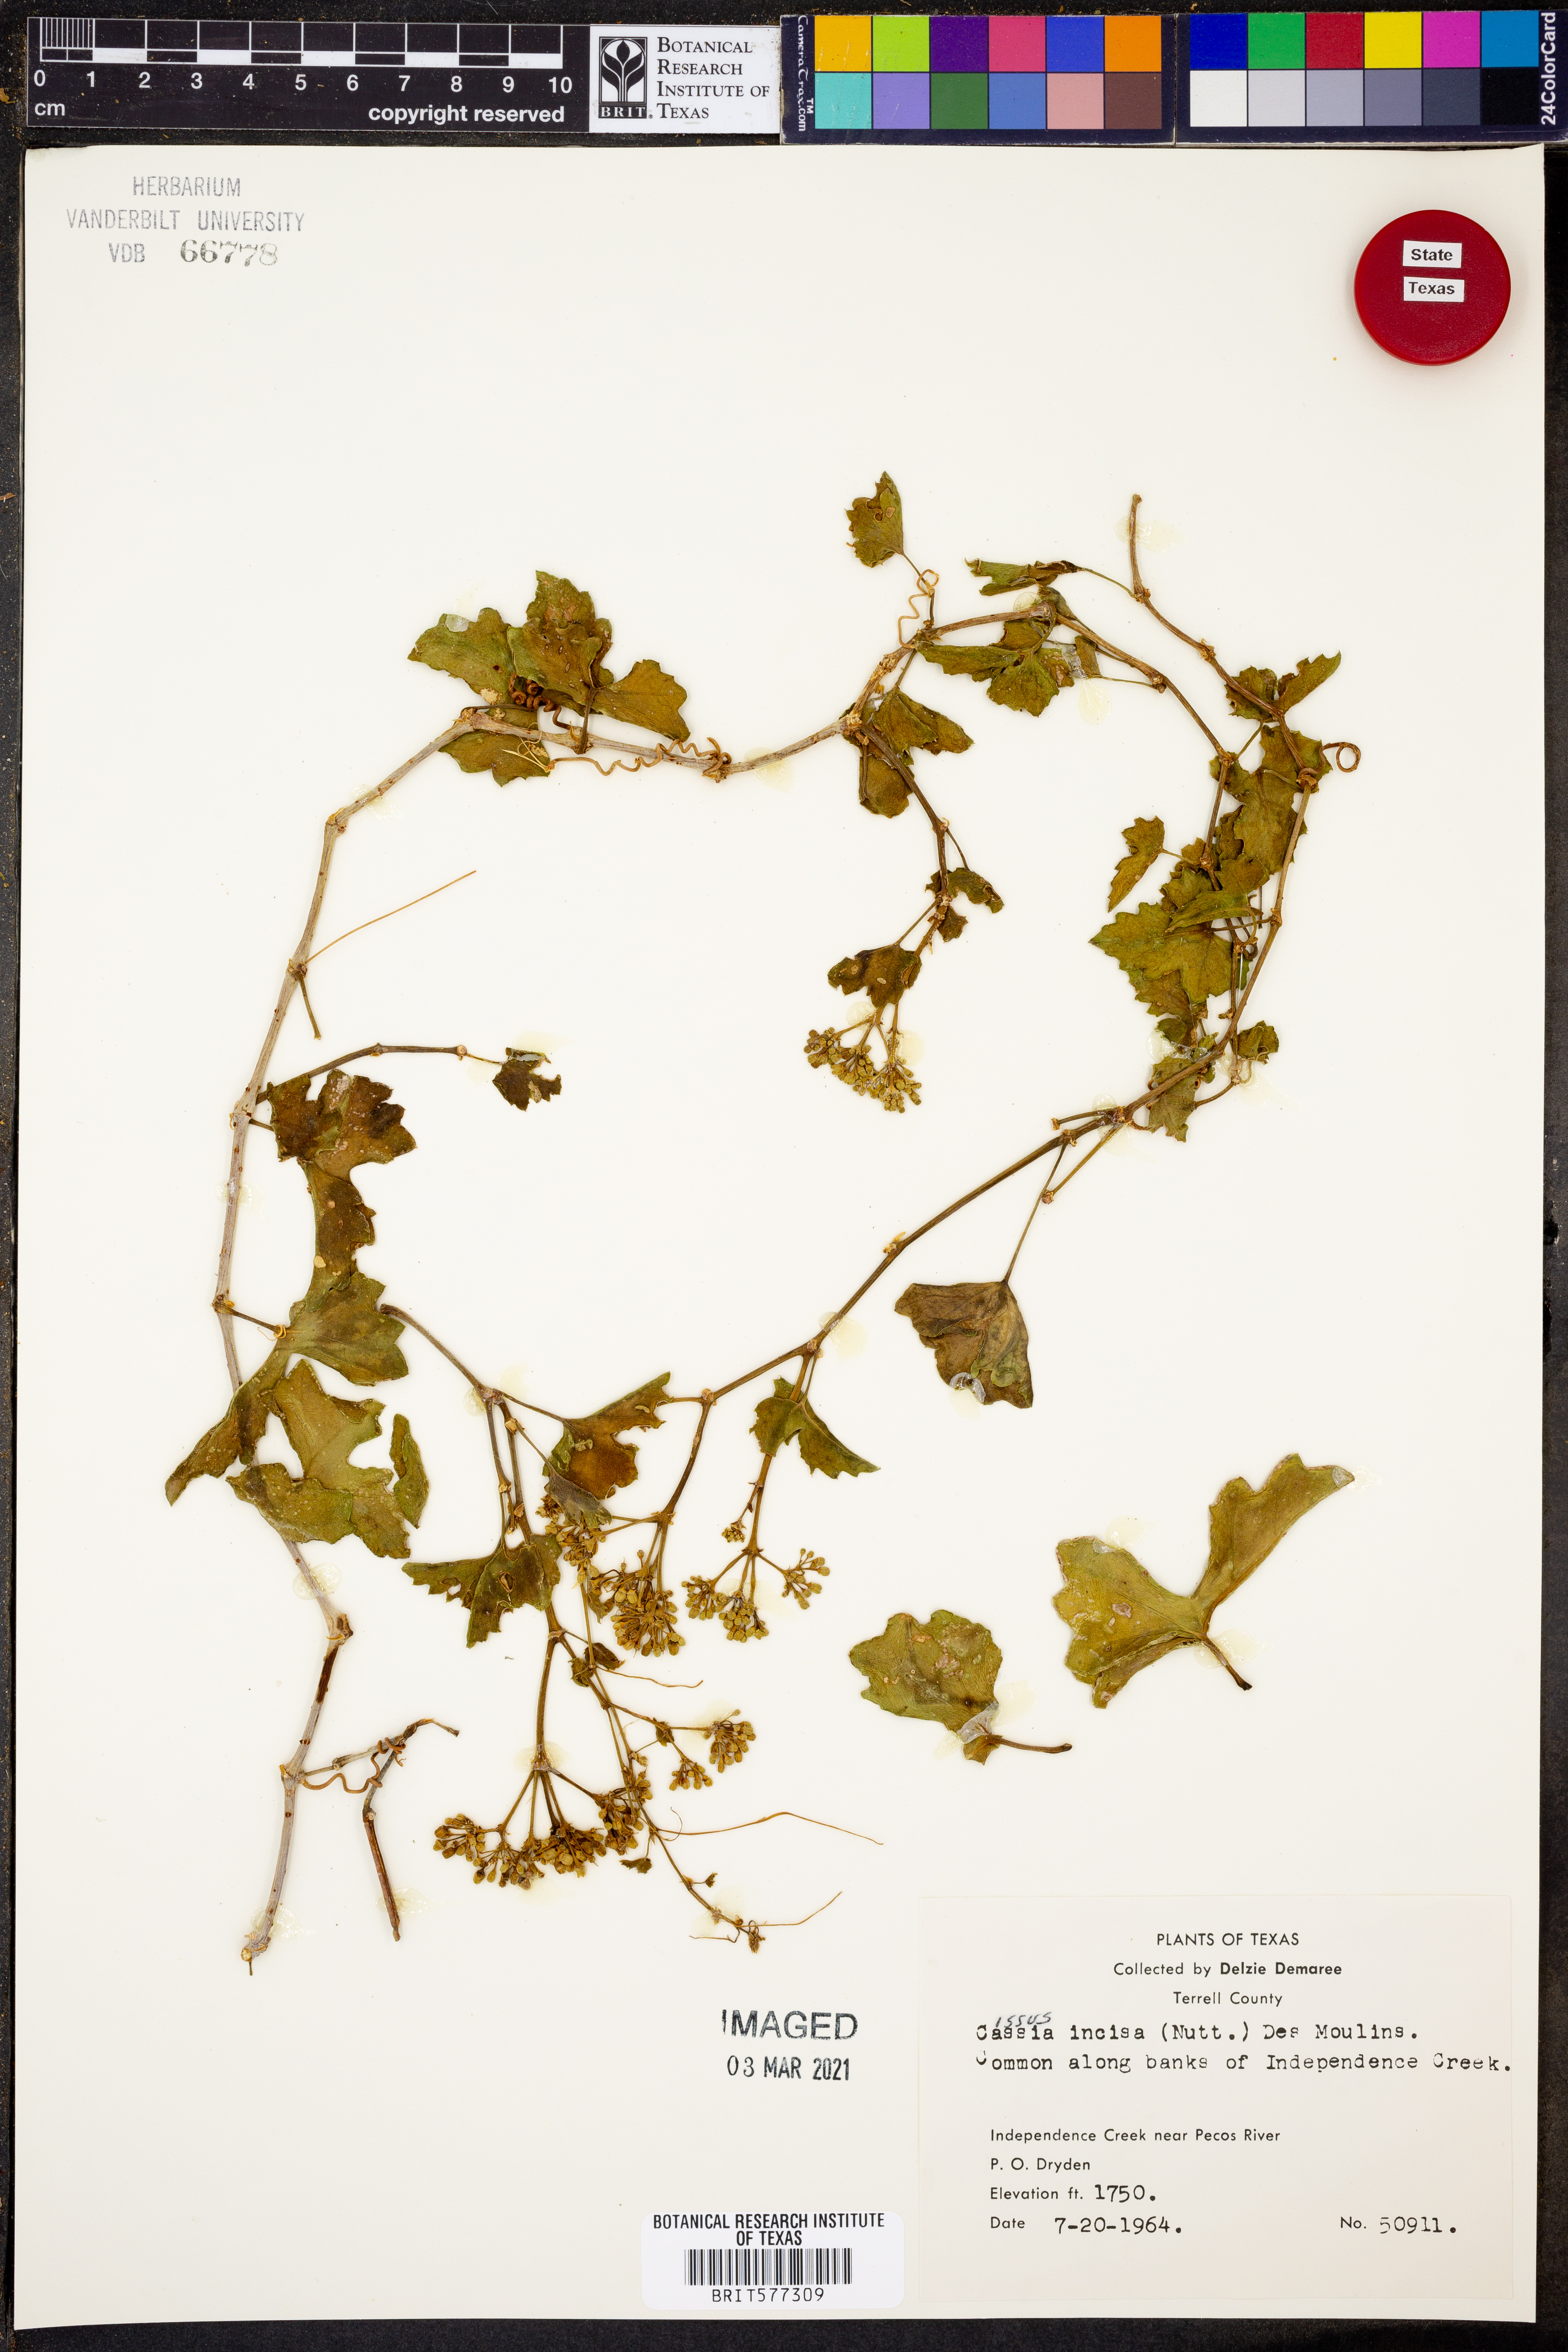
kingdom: Plantae
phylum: Tracheophyta
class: Magnoliopsida
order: Vitales
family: Vitaceae
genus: Cissus
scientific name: Cissus trifoliata
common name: Vine-sorrel
